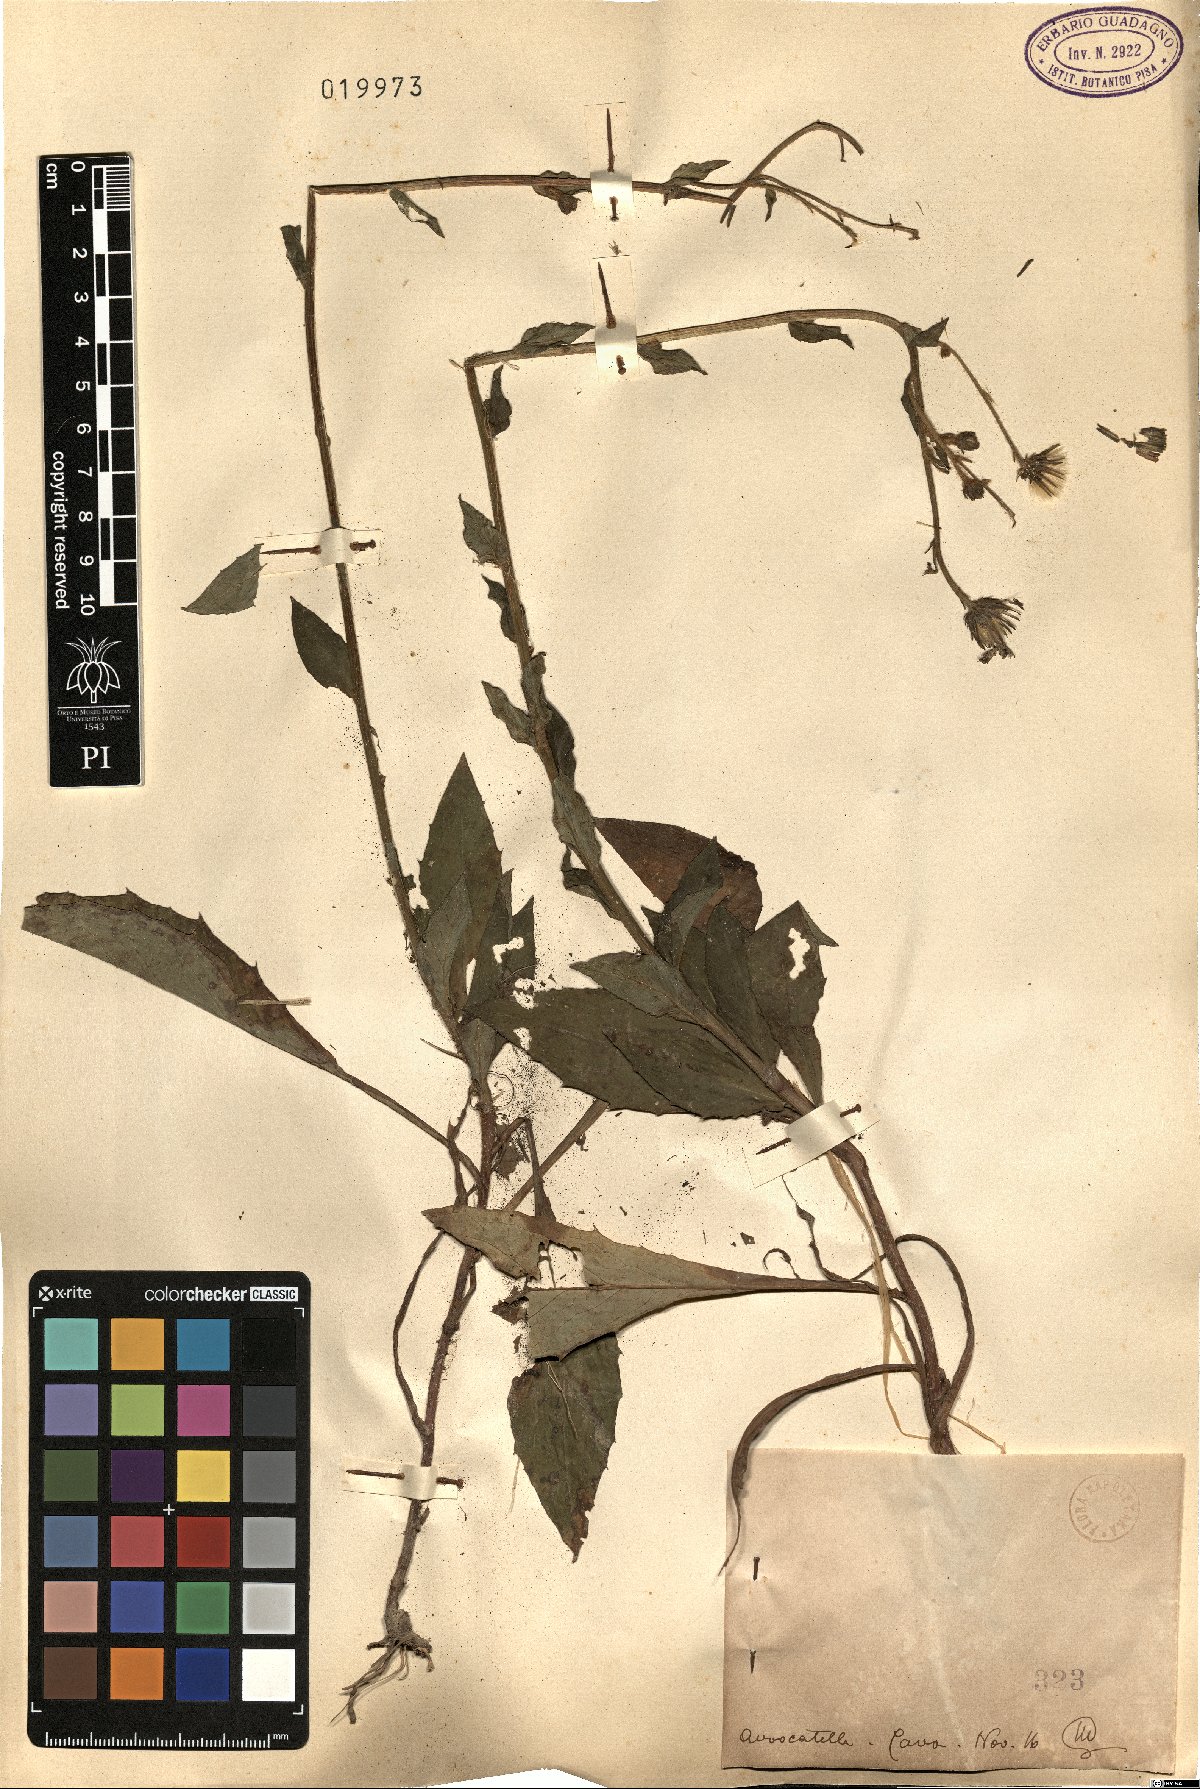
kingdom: Plantae
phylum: Tracheophyta
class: Magnoliopsida
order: Asterales
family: Asteraceae
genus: Hieracium
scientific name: Hieracium
